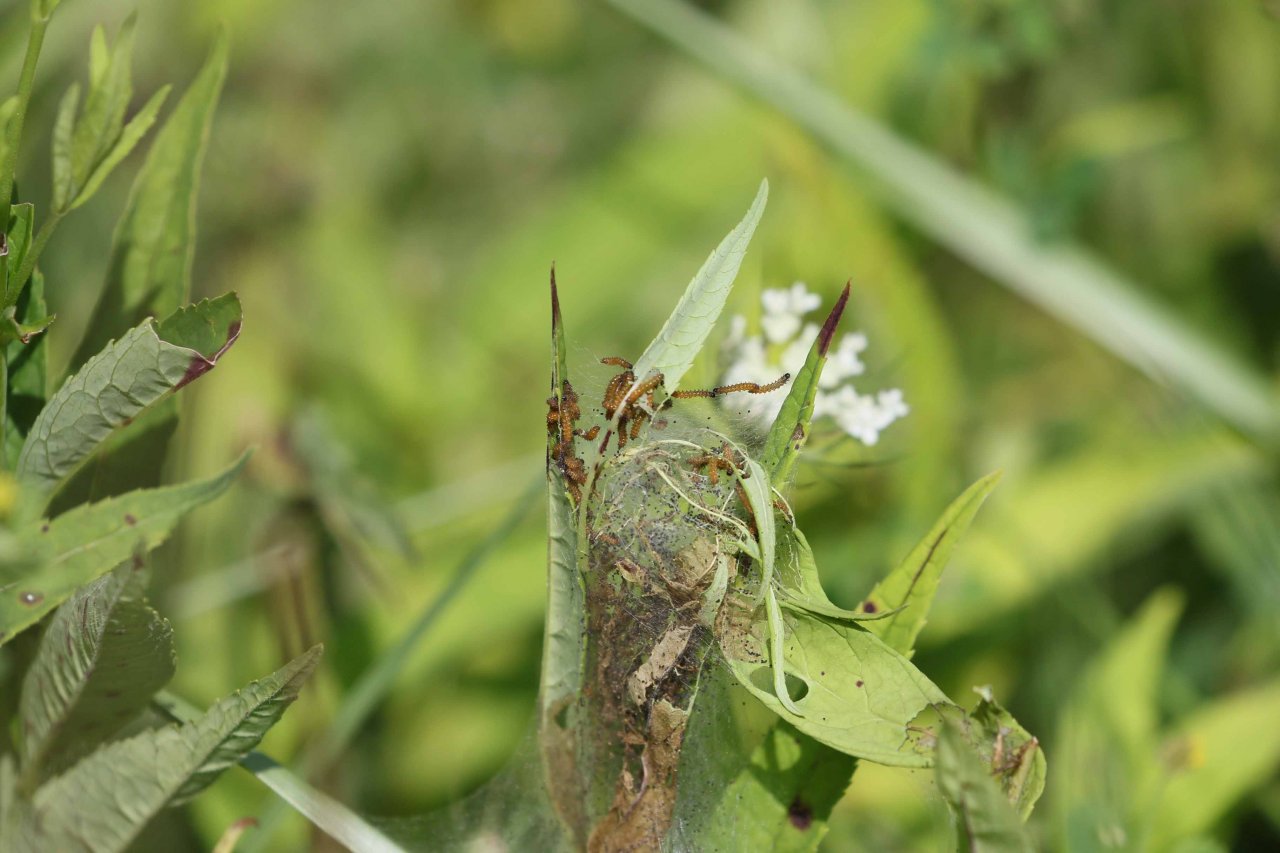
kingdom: Animalia
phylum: Arthropoda
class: Insecta
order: Lepidoptera
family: Nymphalidae
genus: Euphydryas
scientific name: Euphydryas phaeton
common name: Baltimore Checkerspot
